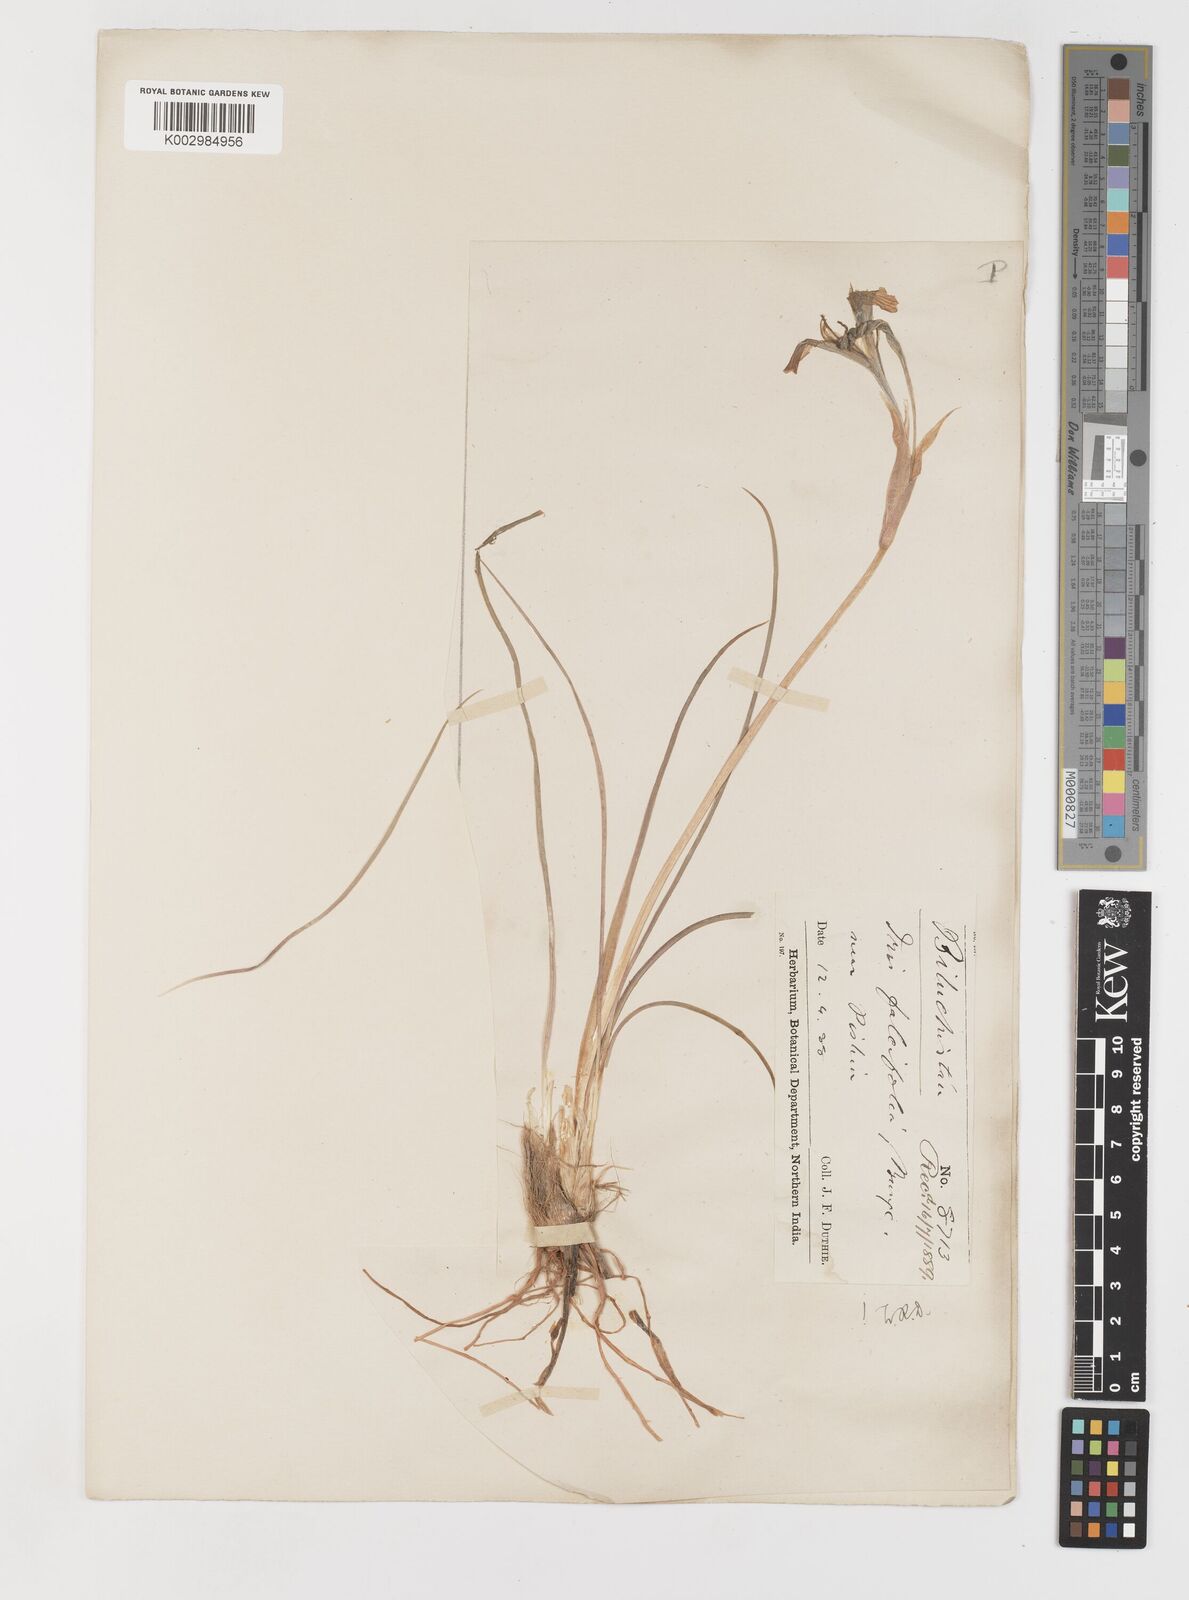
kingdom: Plantae
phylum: Tracheophyta
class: Liliopsida
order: Asparagales
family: Iridaceae
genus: Iris
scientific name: Iris longiscapa
